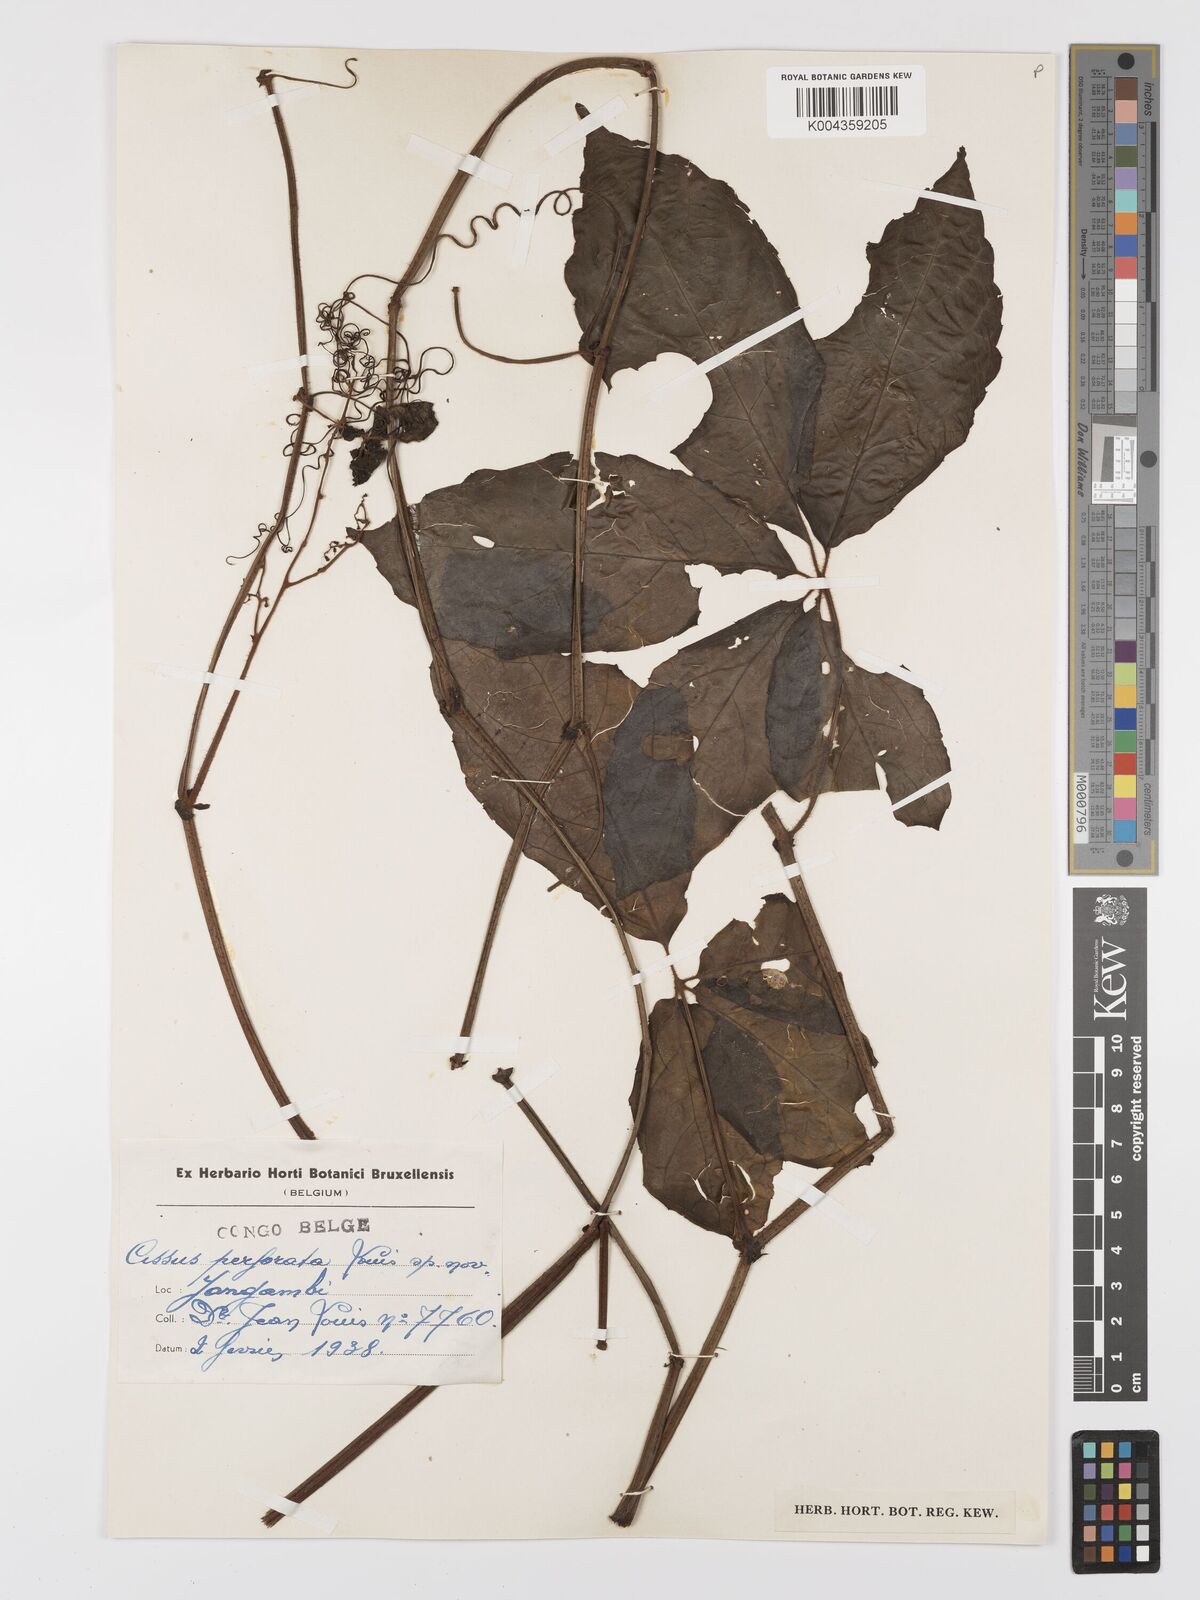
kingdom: Plantae
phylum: Tracheophyta
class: Magnoliopsida
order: Vitales
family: Vitaceae
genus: Cyphostemma
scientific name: Cyphostemma perforatum
